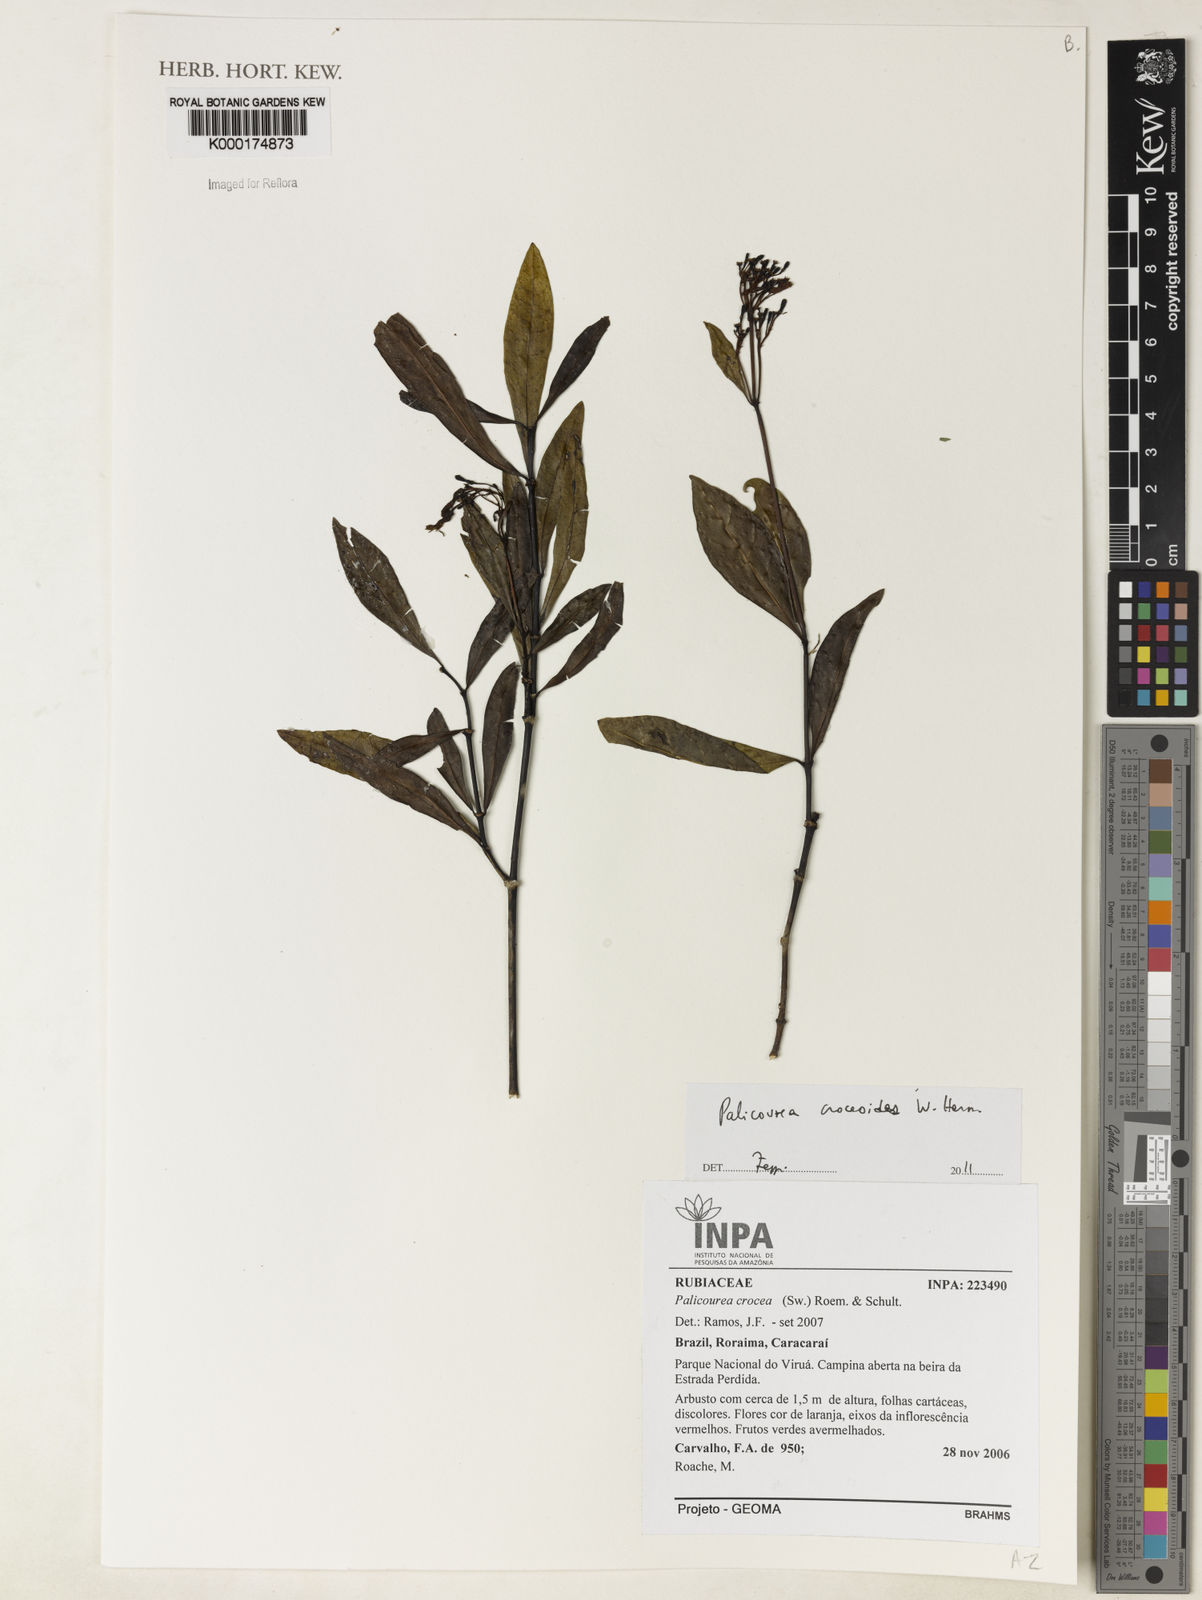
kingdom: Plantae
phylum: Tracheophyta
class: Magnoliopsida
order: Gentianales
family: Rubiaceae
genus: Palicourea
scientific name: Palicourea croceoides
